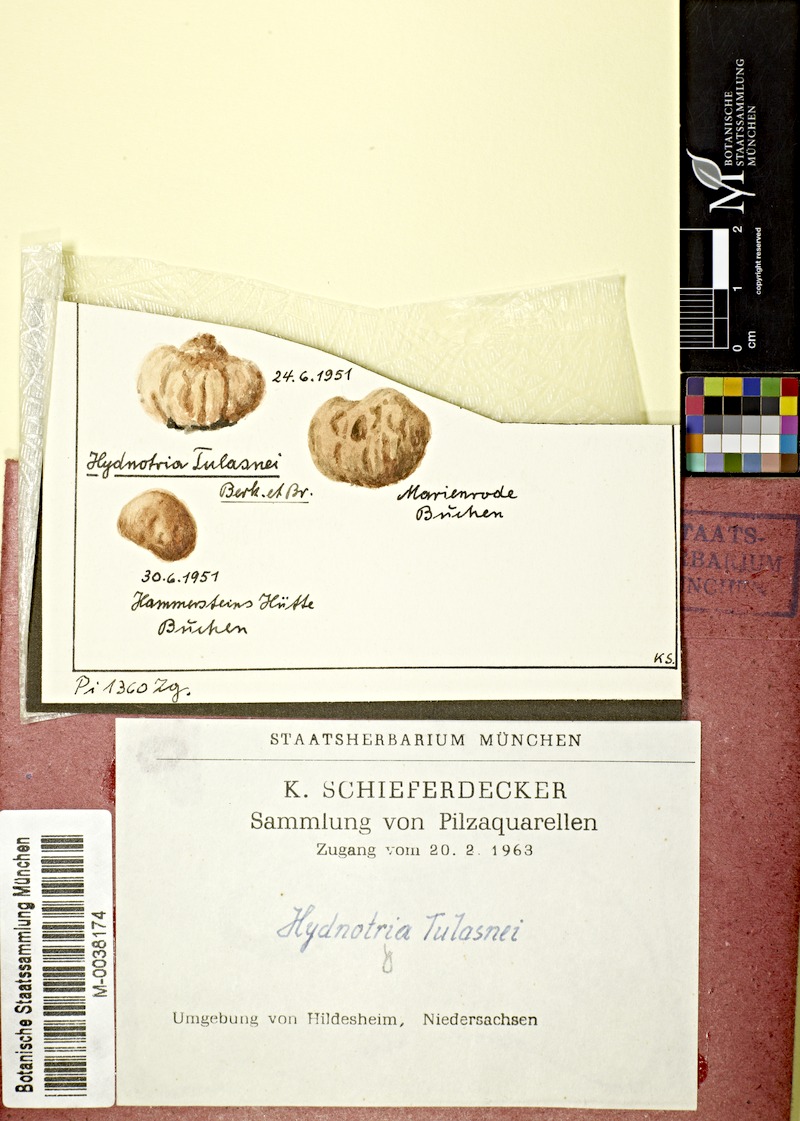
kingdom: Fungi
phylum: Ascomycota
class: Pezizomycetes
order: Pezizales
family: Discinaceae
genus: Hydnotrya
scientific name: Hydnotrya tulasnei
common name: Red fold truffle
